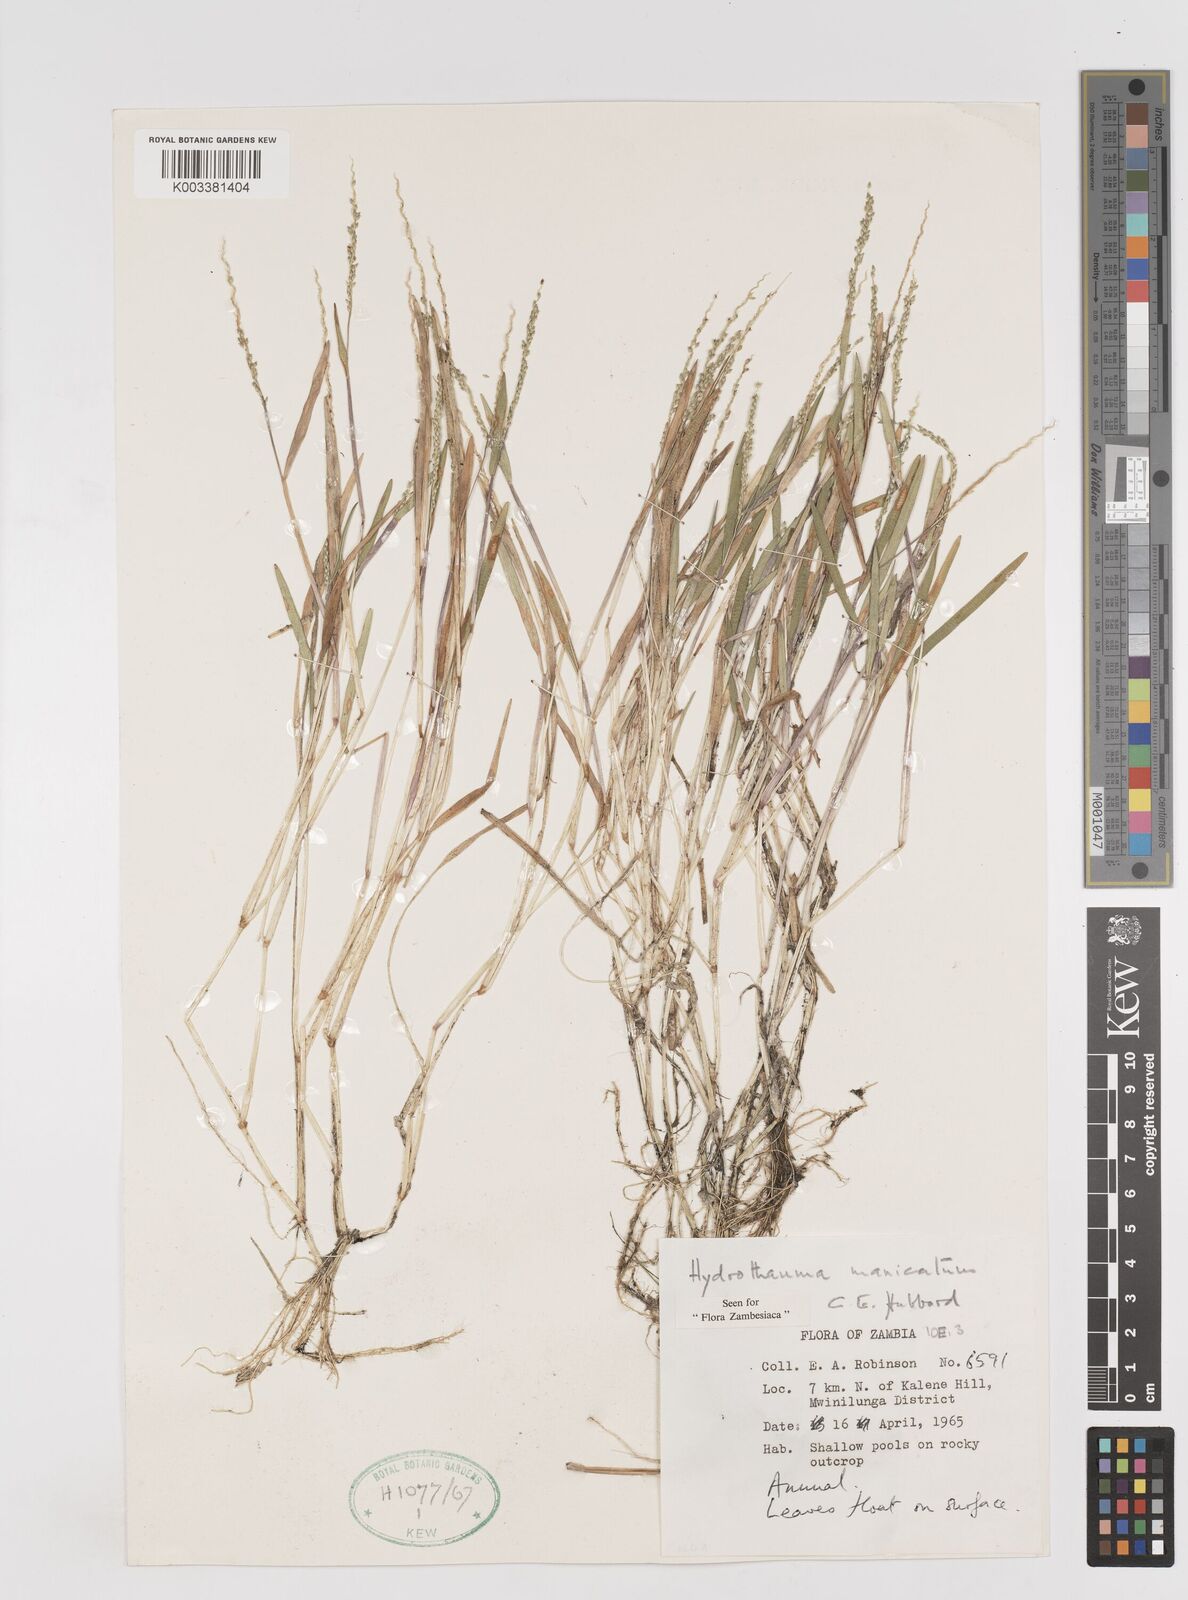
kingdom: Plantae
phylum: Tracheophyta
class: Liliopsida
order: Poales
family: Poaceae
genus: Hydrothauma
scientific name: Hydrothauma
